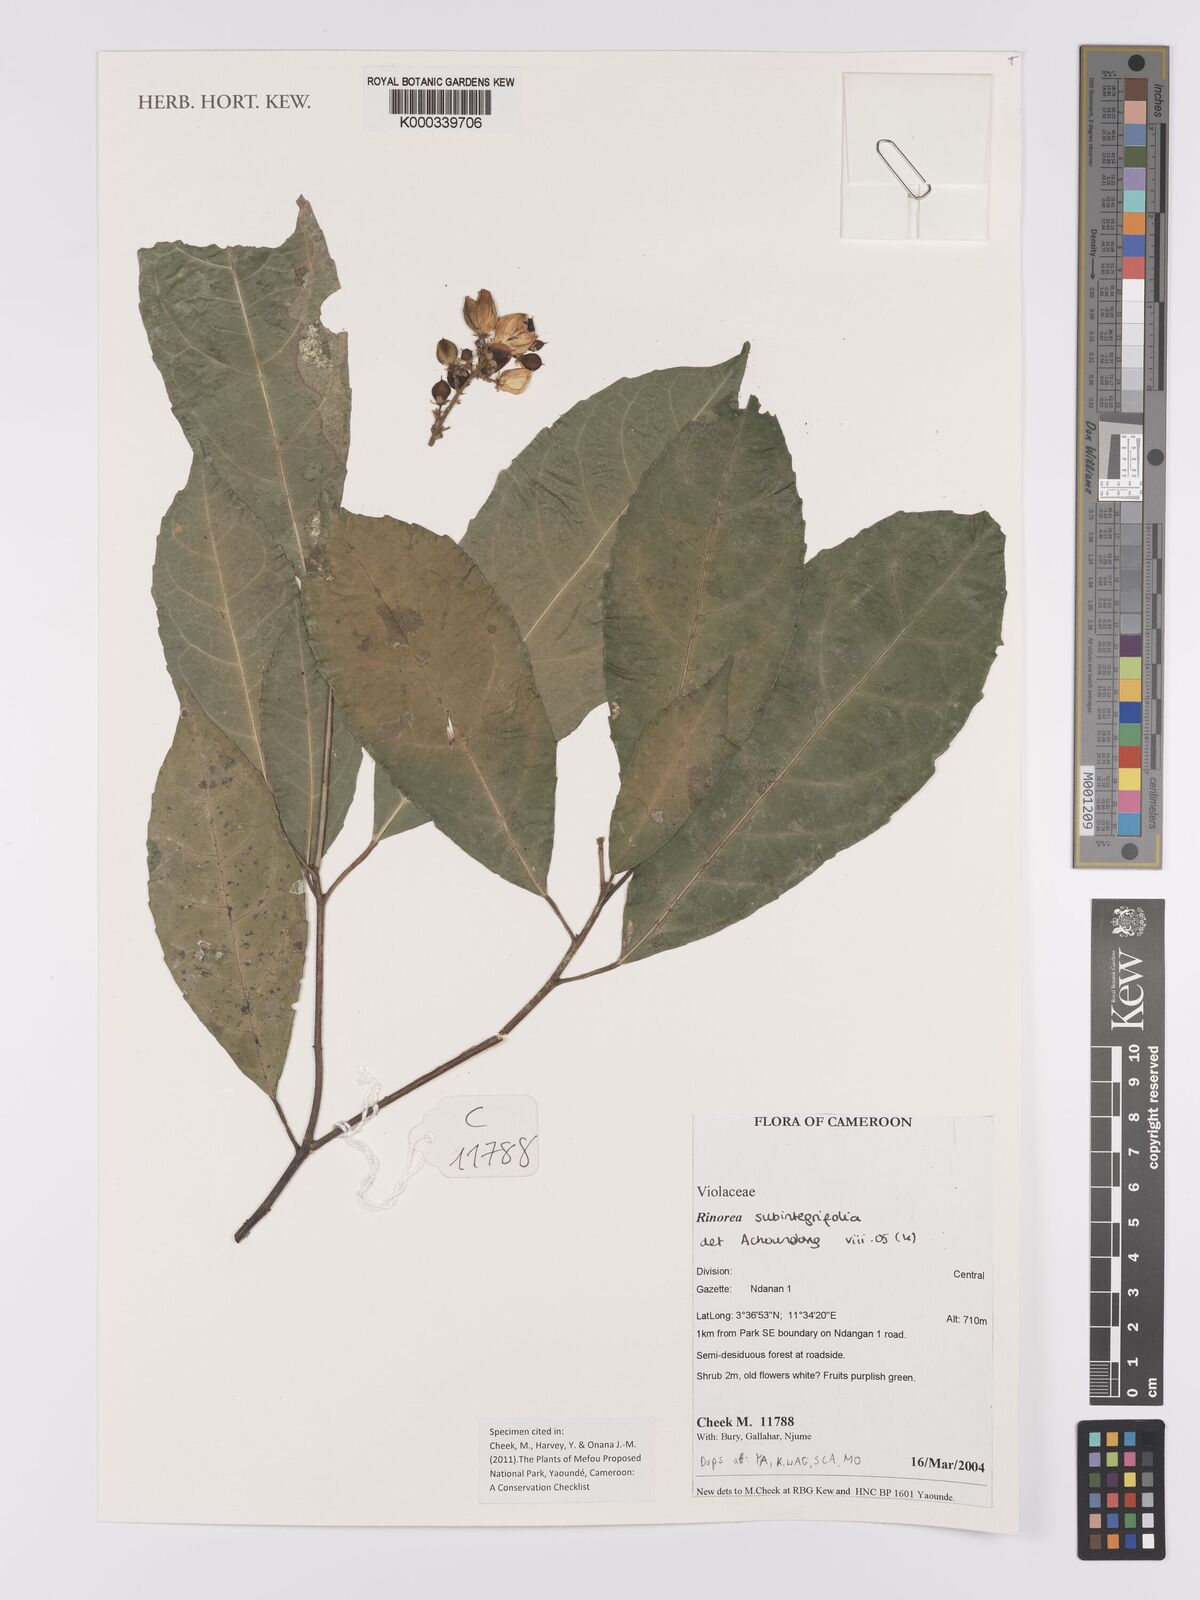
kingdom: Plantae
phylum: Tracheophyta
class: Magnoliopsida
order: Malpighiales
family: Violaceae
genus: Rinorea
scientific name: Rinorea subintegrifolia
